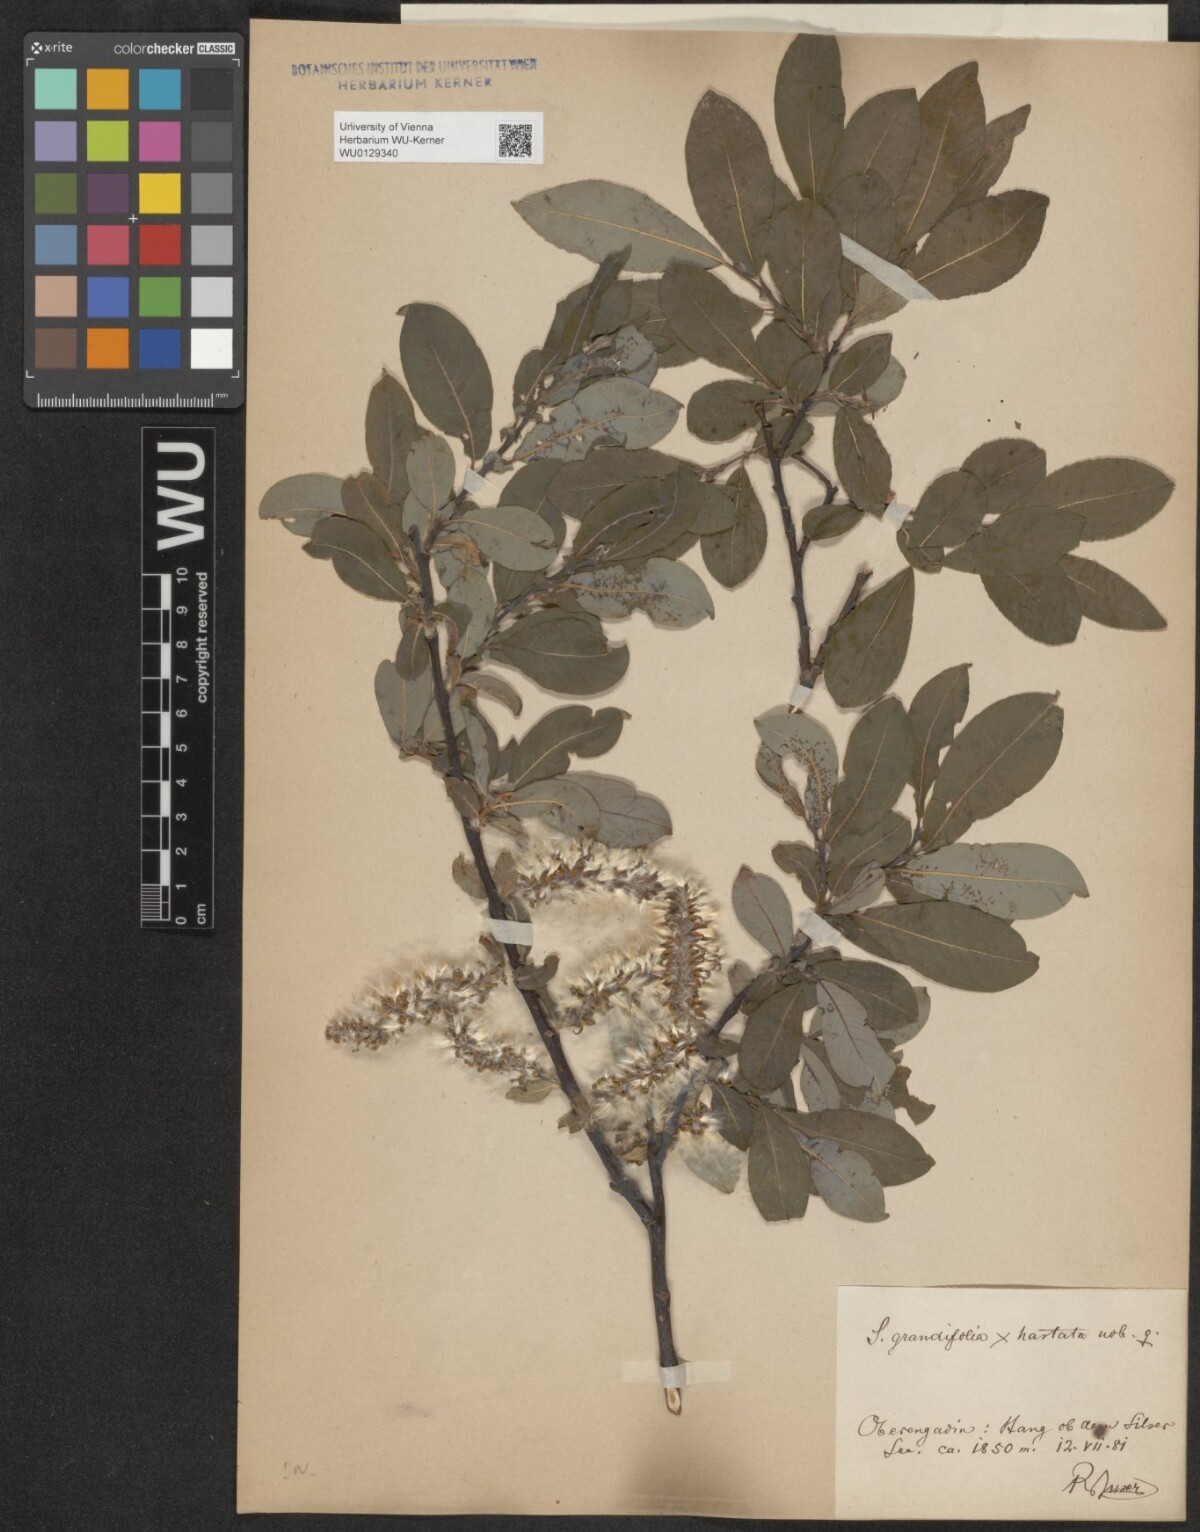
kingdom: Plantae
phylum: Tracheophyta
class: Magnoliopsida
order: Malpighiales
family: Salicaceae
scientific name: Salicaceae
